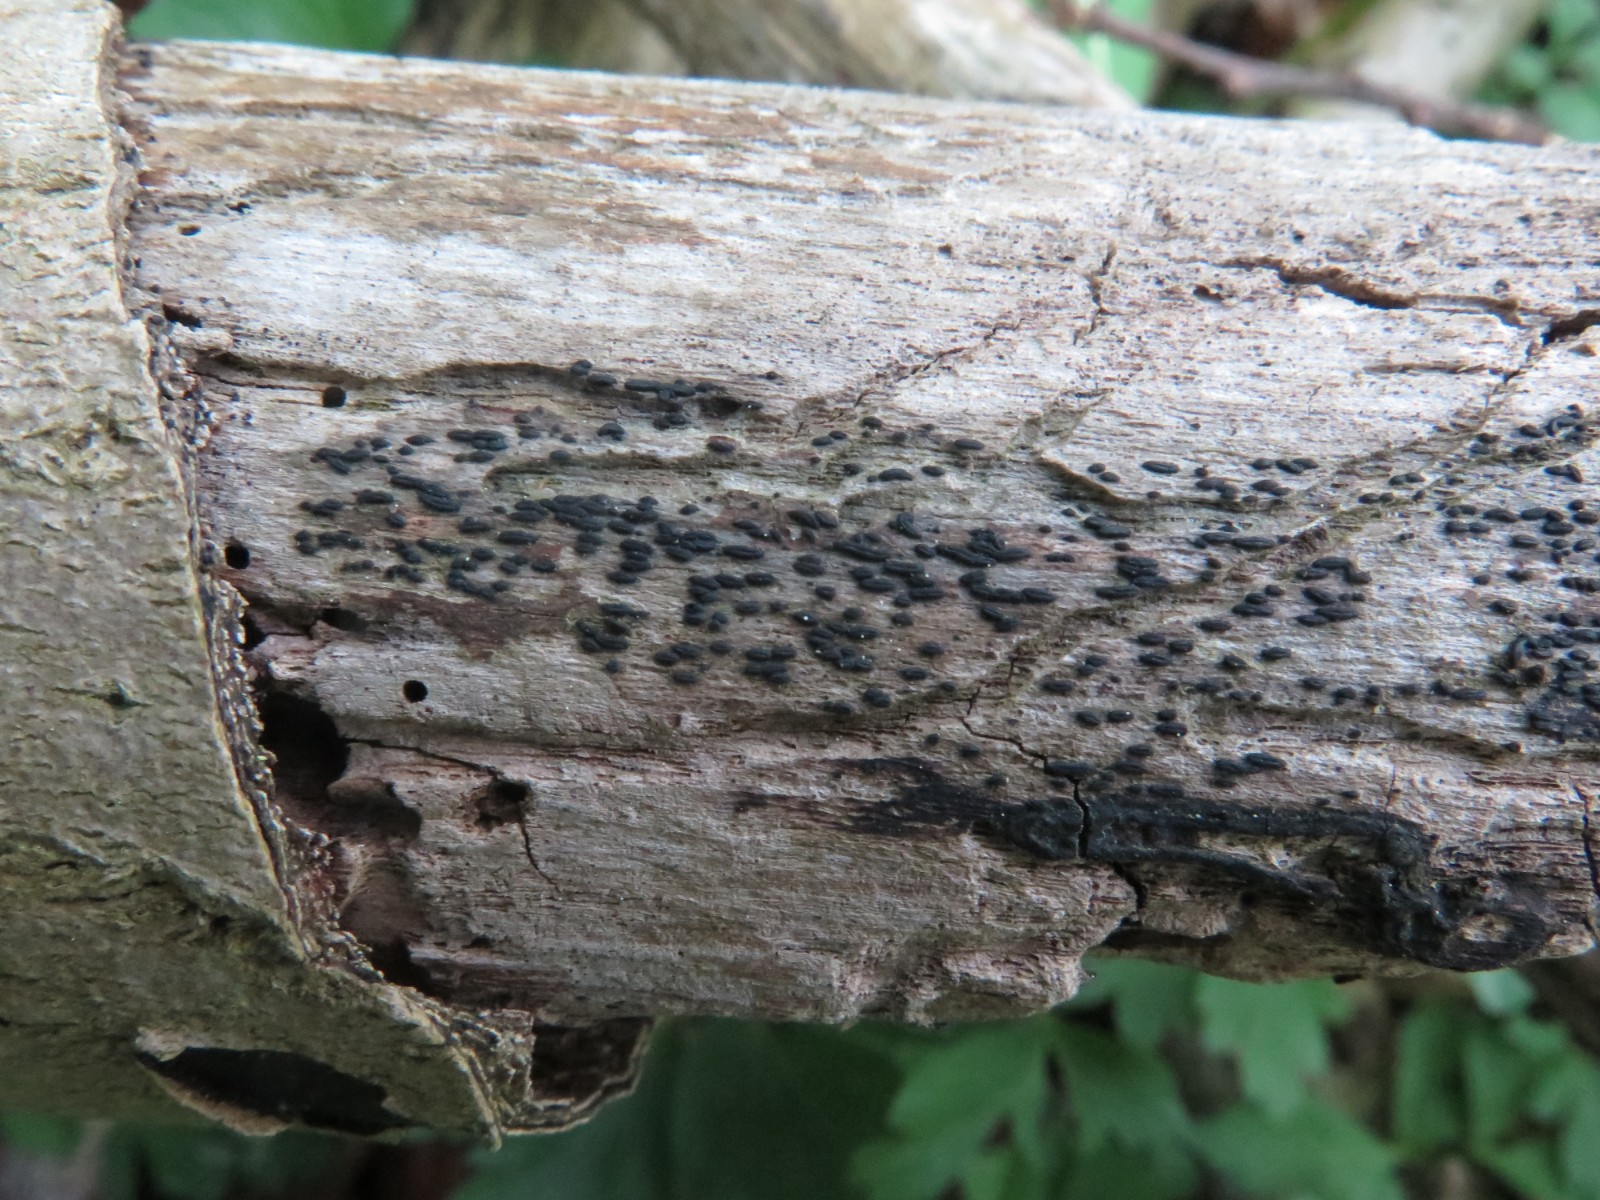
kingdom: Fungi
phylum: Ascomycota
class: Dothideomycetes
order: Hysteriales
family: Hysteriaceae
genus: Hysterium
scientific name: Hysterium pulicare
